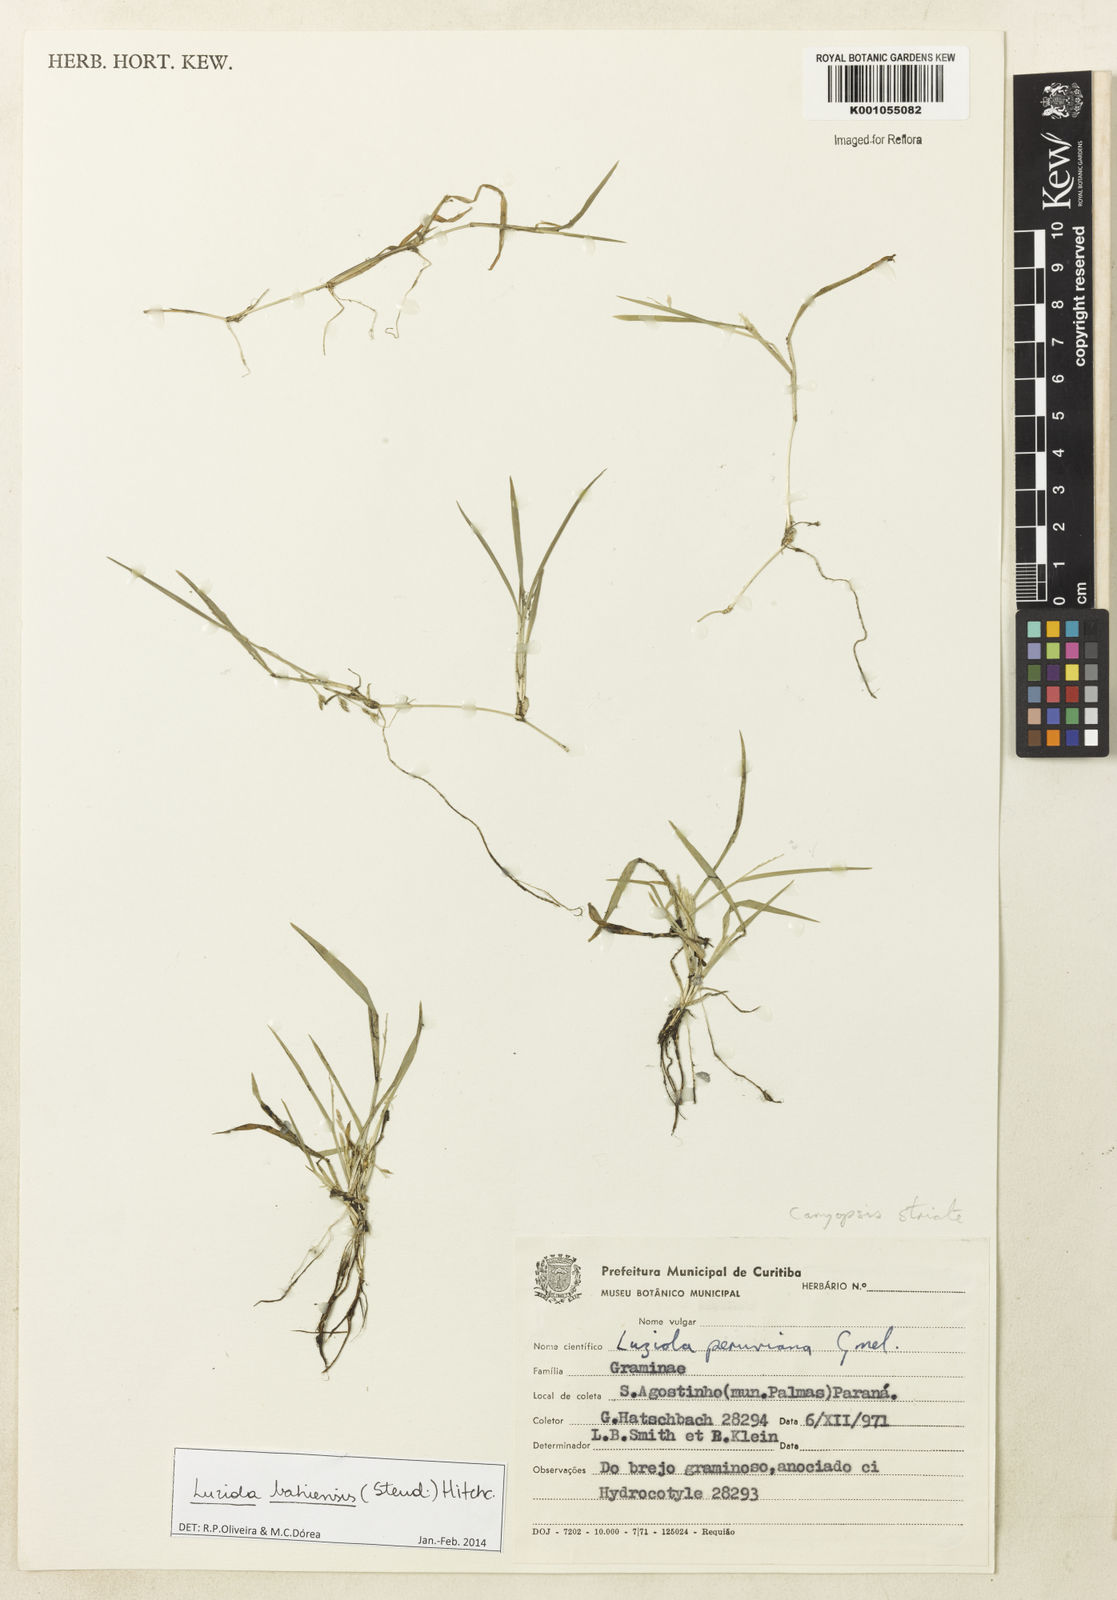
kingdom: Plantae
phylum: Tracheophyta
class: Liliopsida
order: Poales
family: Poaceae
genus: Luziola
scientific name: Luziola bahiensis
